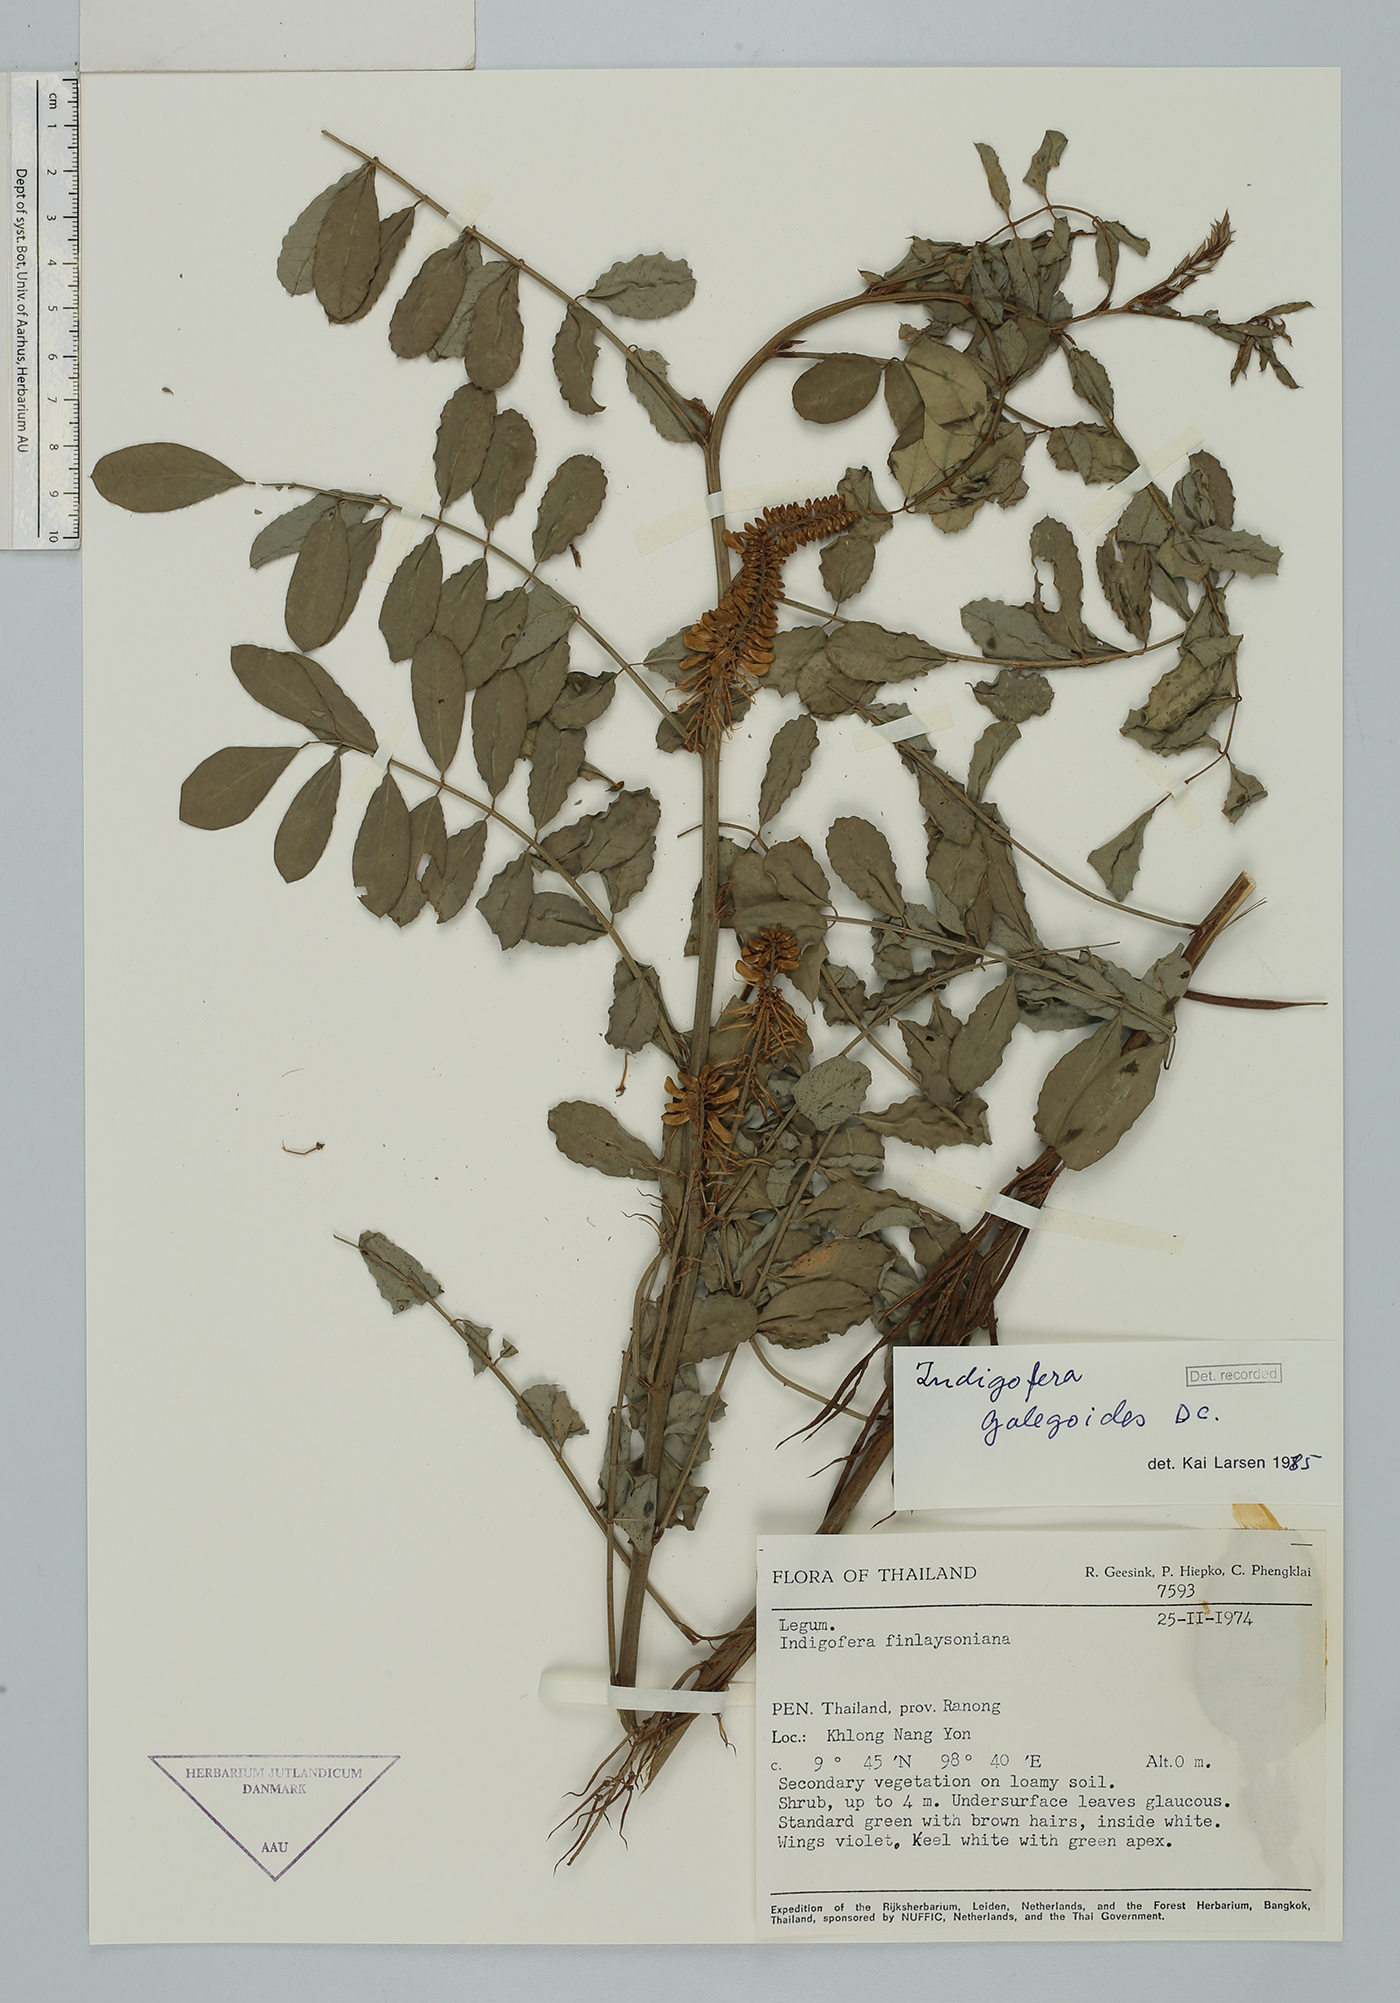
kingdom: Plantae
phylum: Tracheophyta
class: Magnoliopsida
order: Fabales
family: Fabaceae
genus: Indigofera
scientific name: Indigofera galegoides
